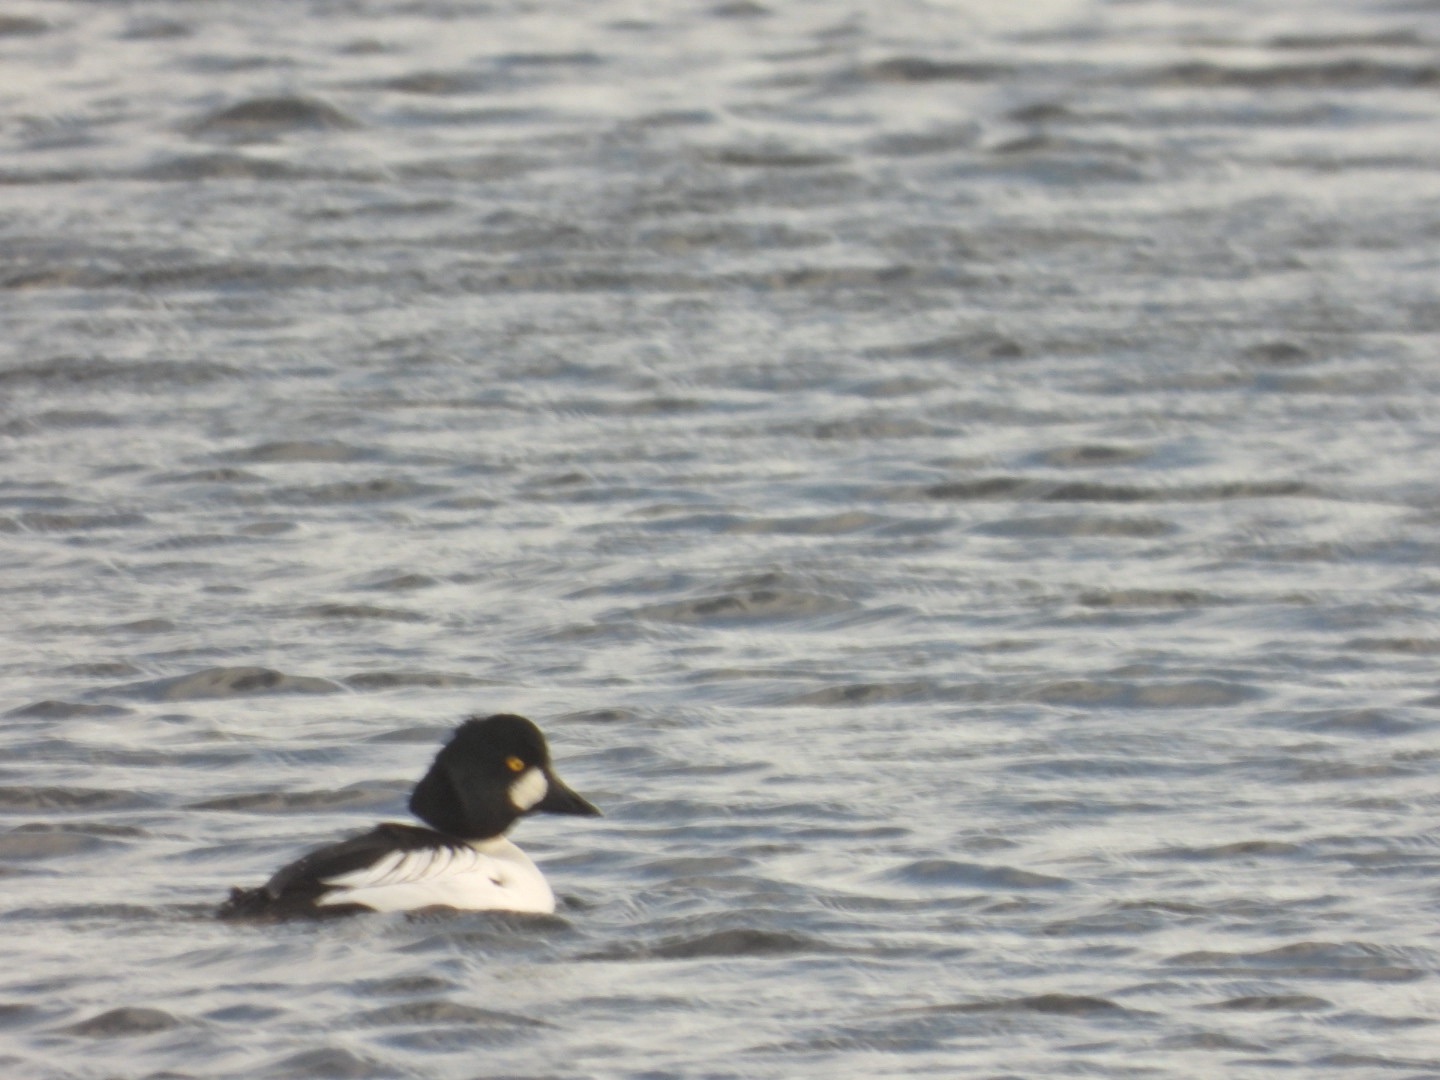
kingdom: Animalia
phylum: Chordata
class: Aves
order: Anseriformes
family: Anatidae
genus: Bucephala
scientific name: Bucephala clangula
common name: Hvinand
